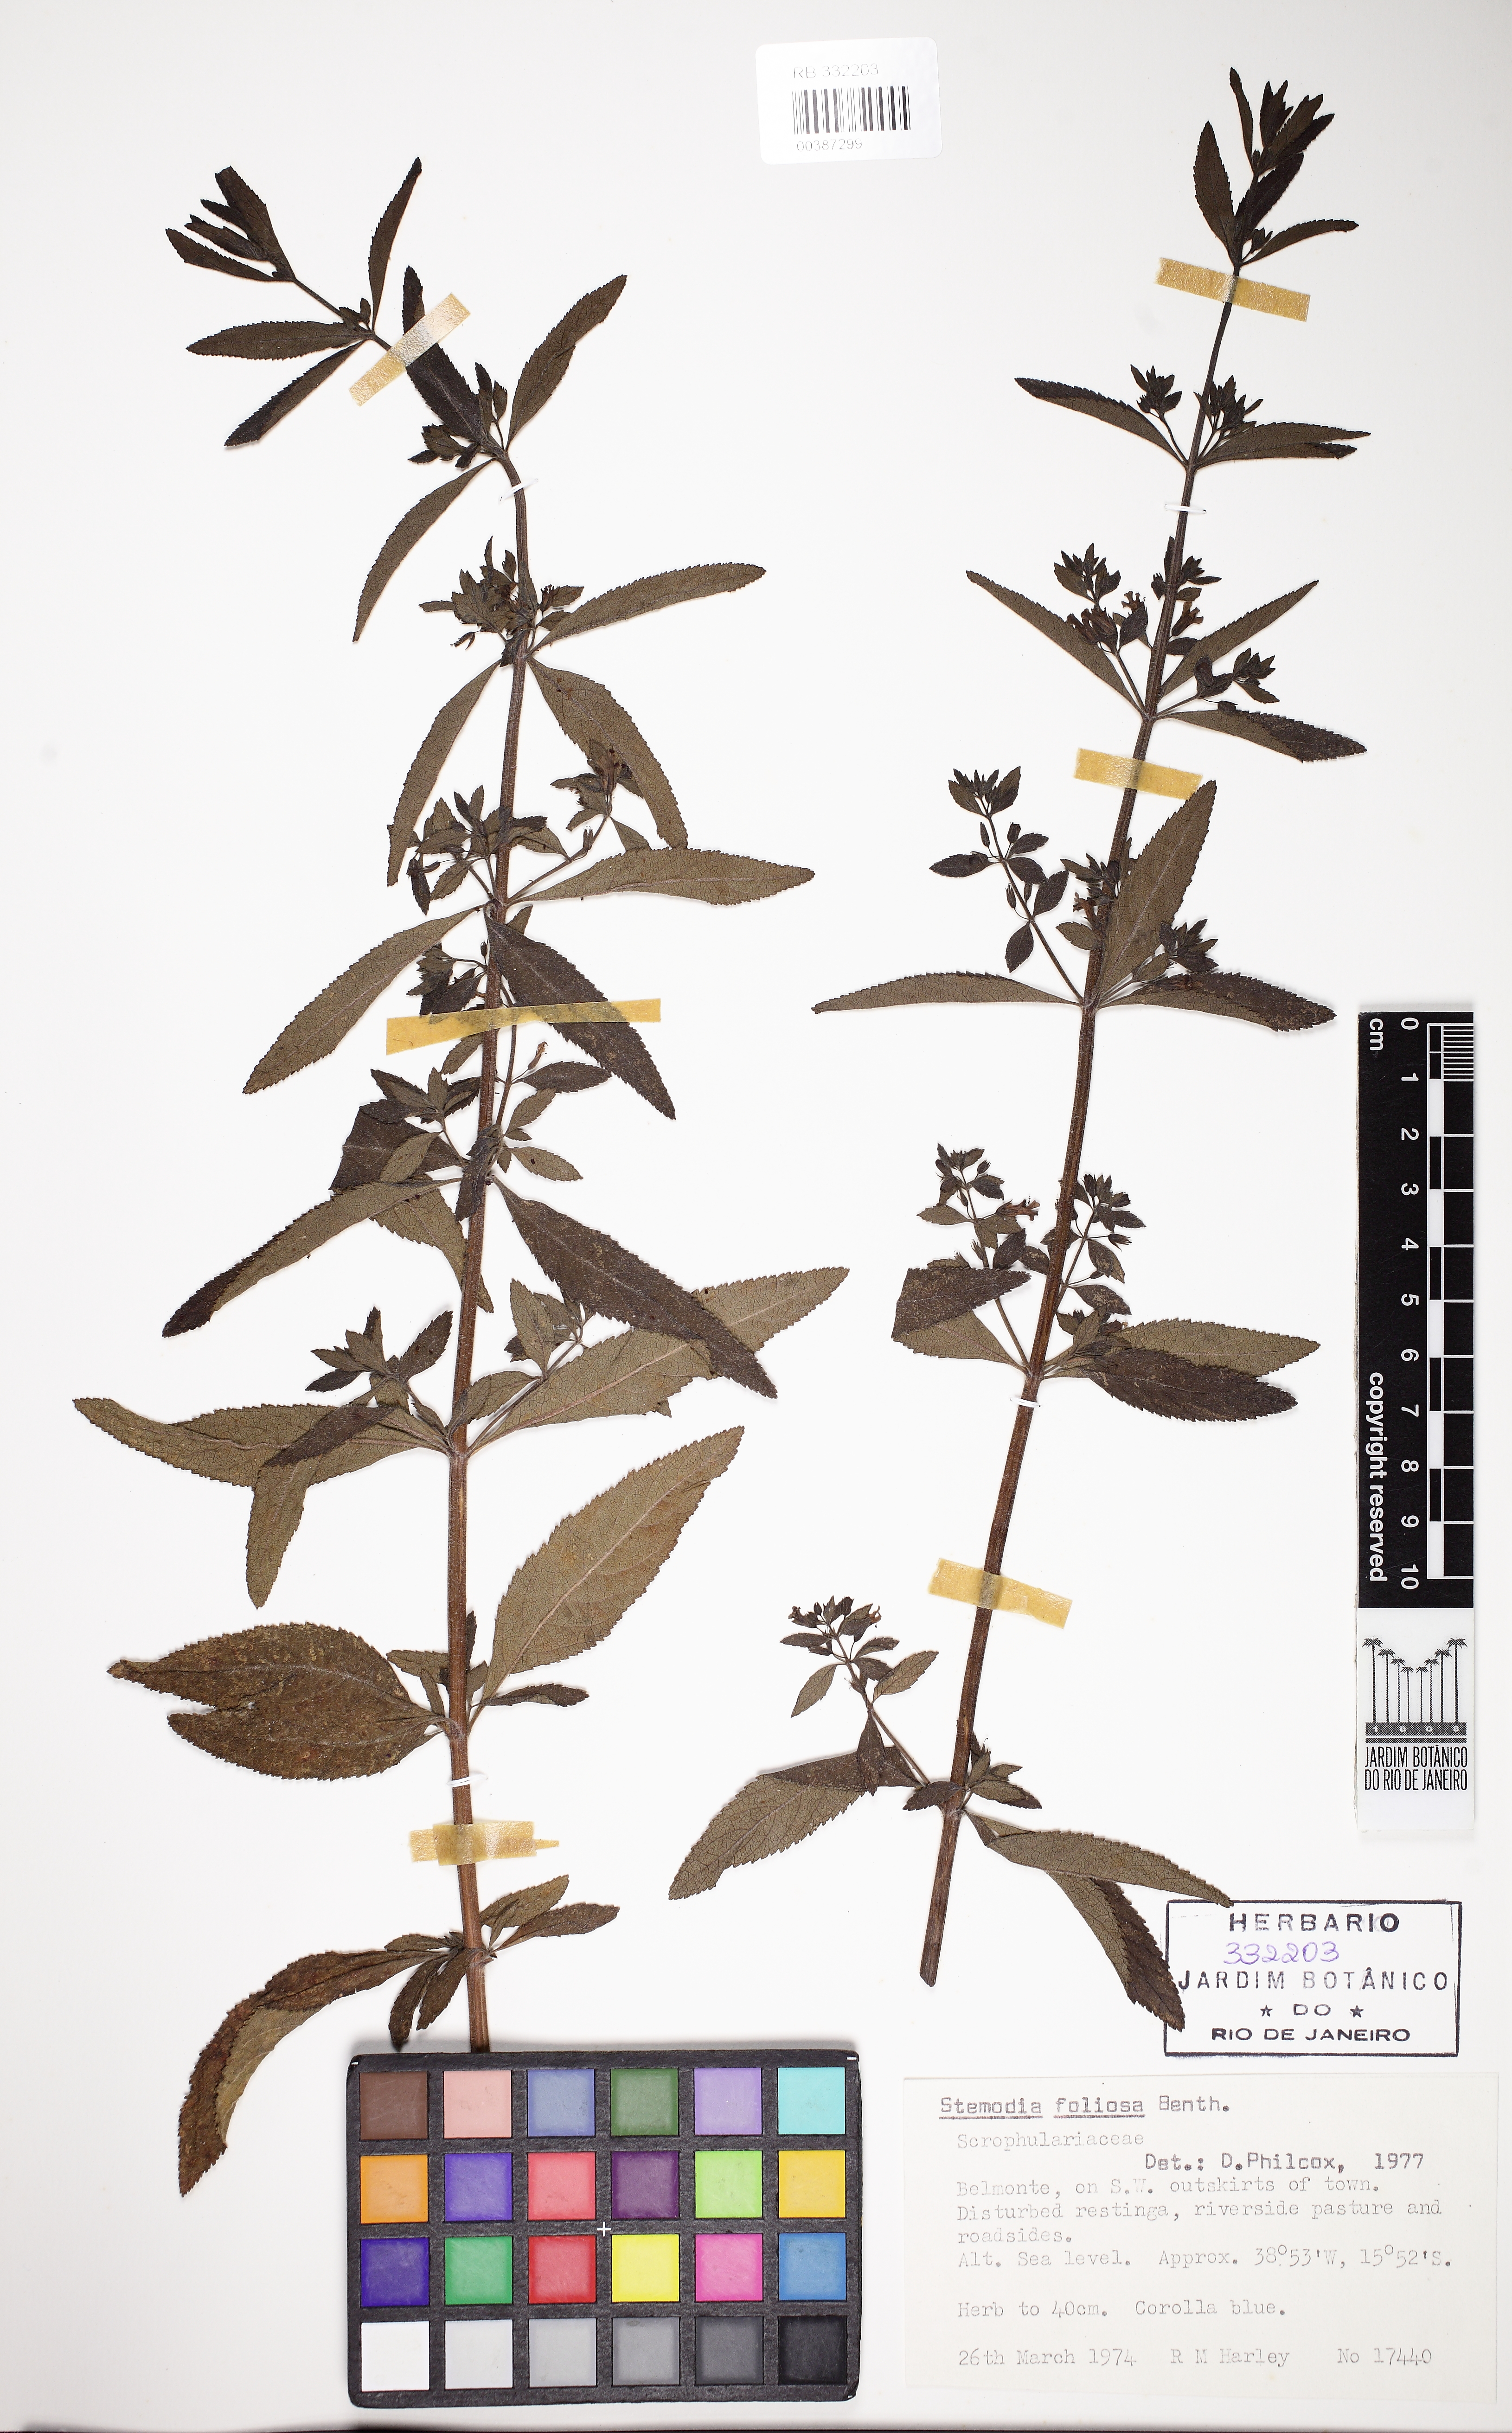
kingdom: Plantae
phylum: Tracheophyta
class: Magnoliopsida
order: Lamiales
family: Plantaginaceae
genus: Stemodia
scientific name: Stemodia foliosa
